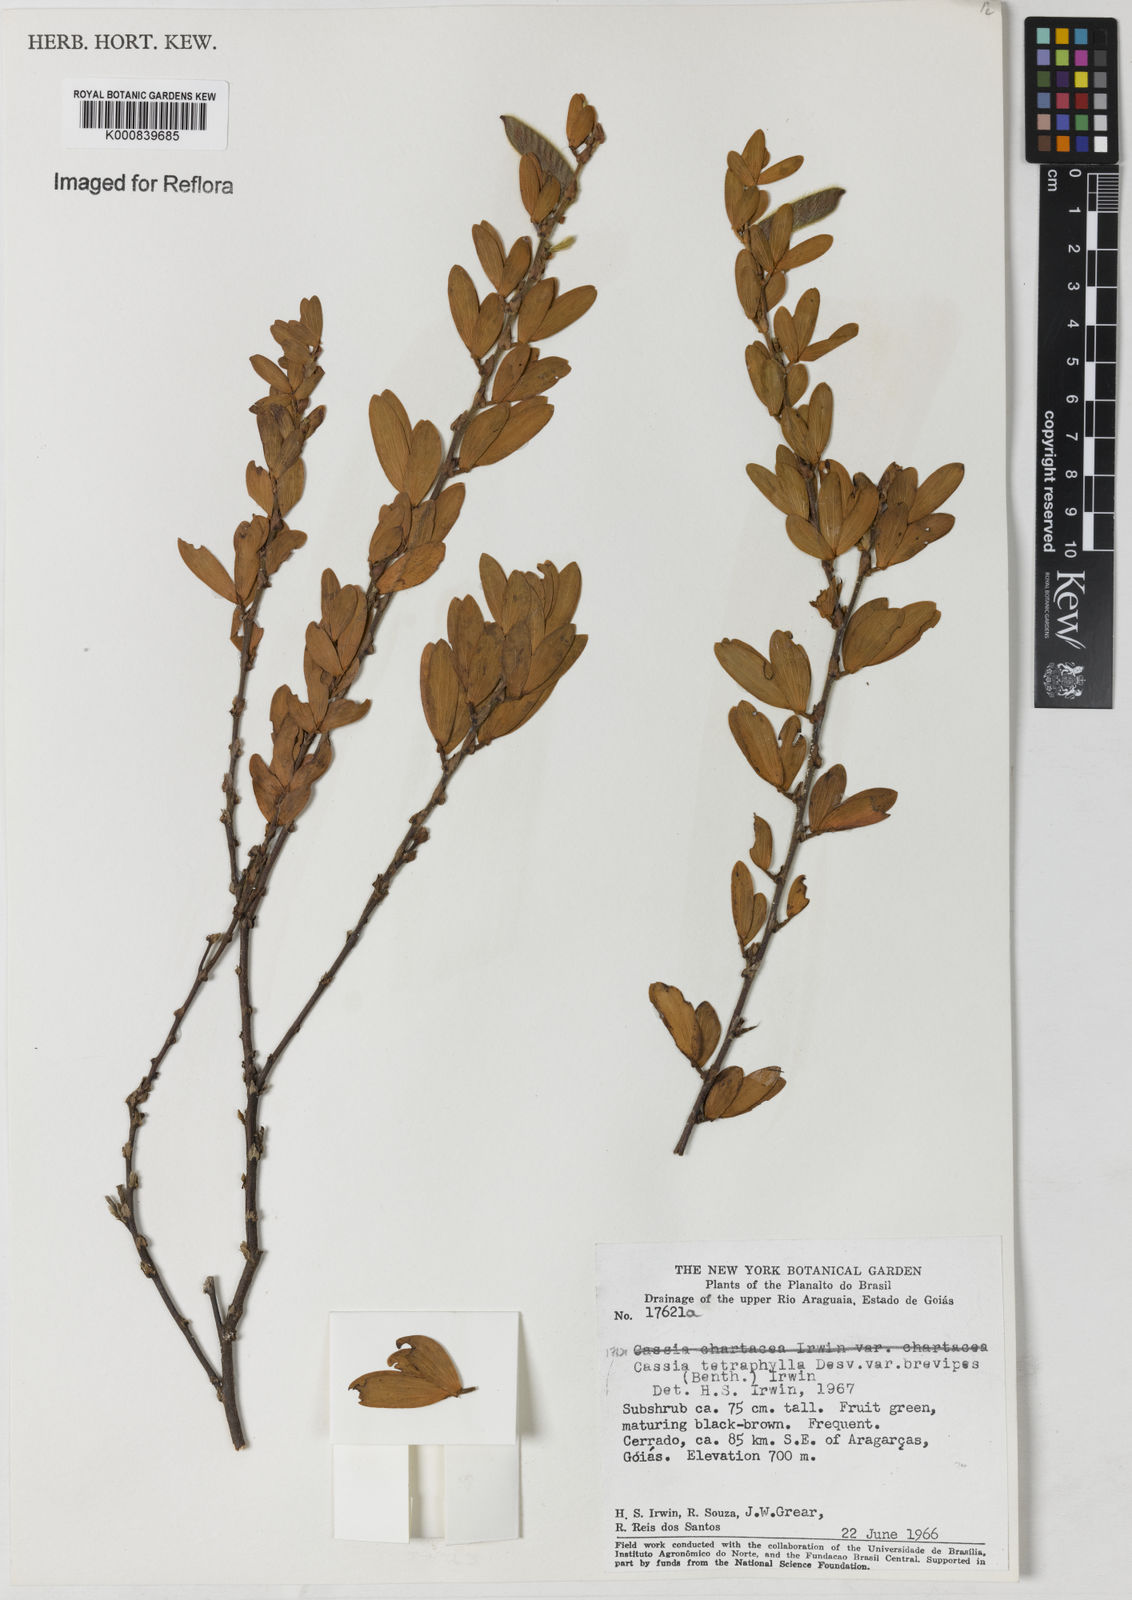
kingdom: Plantae
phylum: Tracheophyta
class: Magnoliopsida
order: Fabales
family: Fabaceae
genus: Chamaecrista
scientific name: Chamaecrista desvauxii
